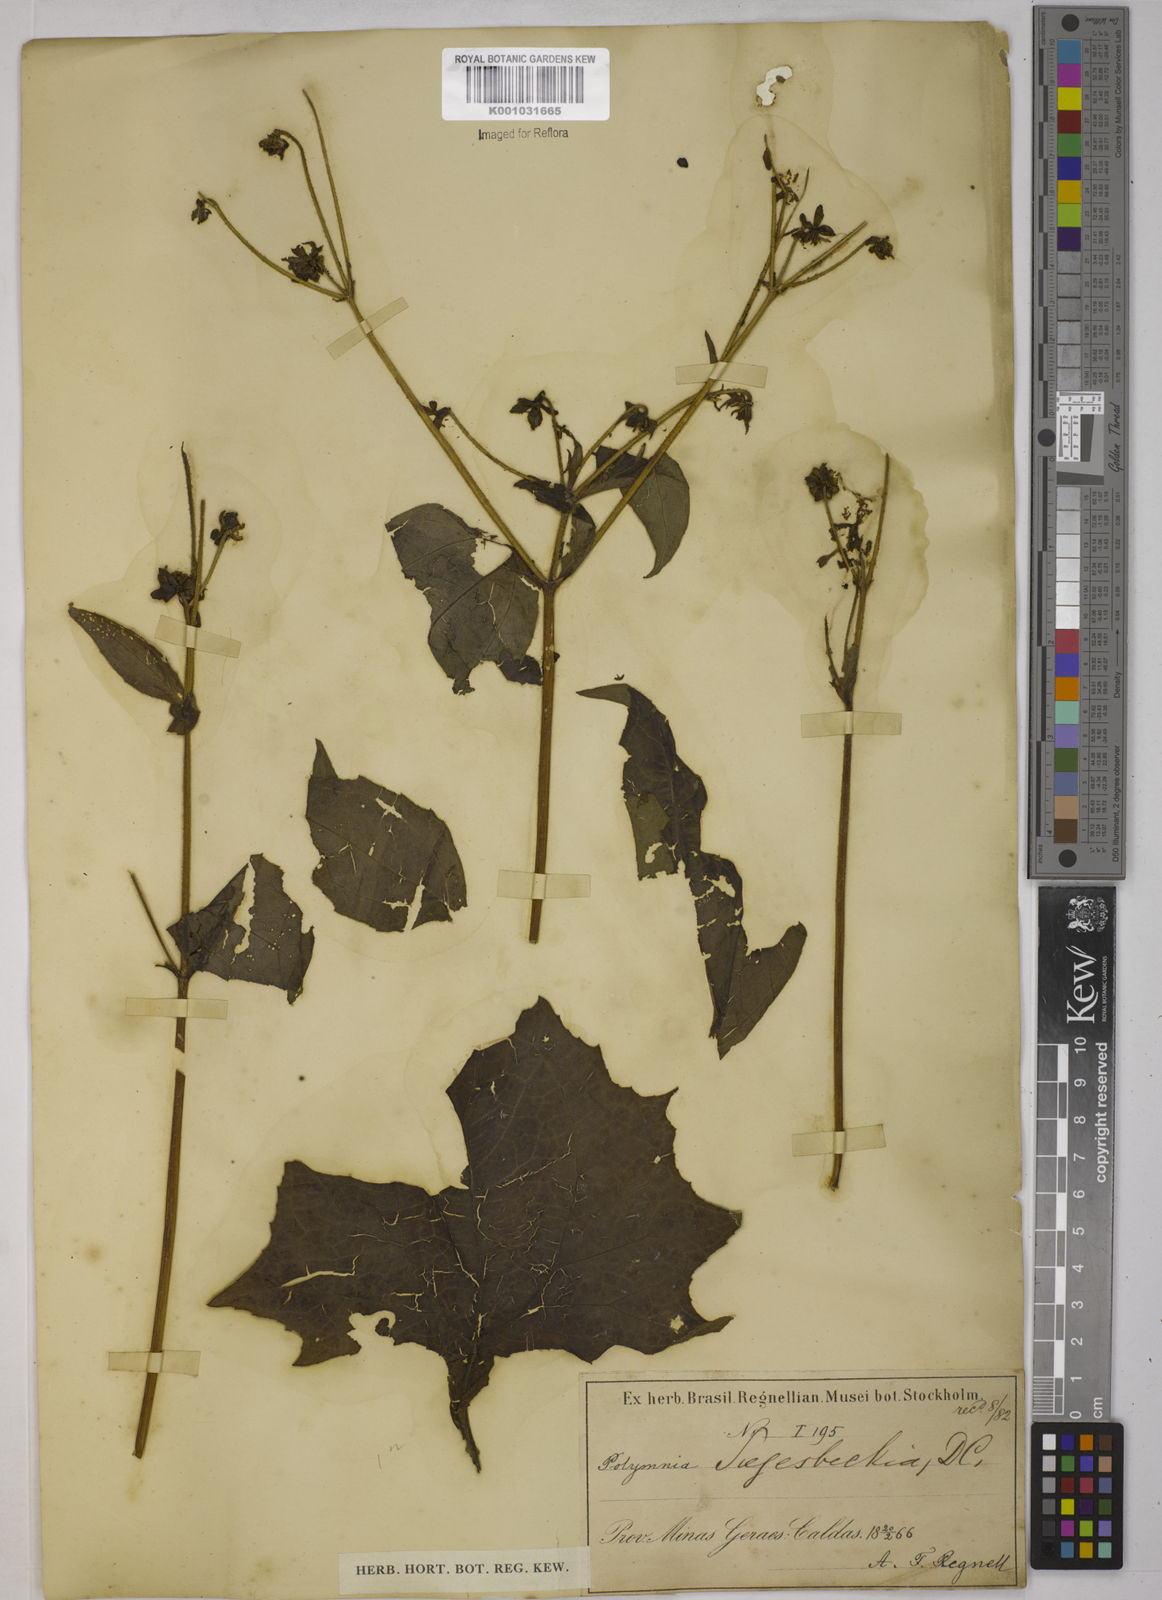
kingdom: Plantae
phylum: Tracheophyta
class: Magnoliopsida
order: Asterales
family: Asteraceae
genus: Smallanthus
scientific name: Smallanthus siegesbeckius
